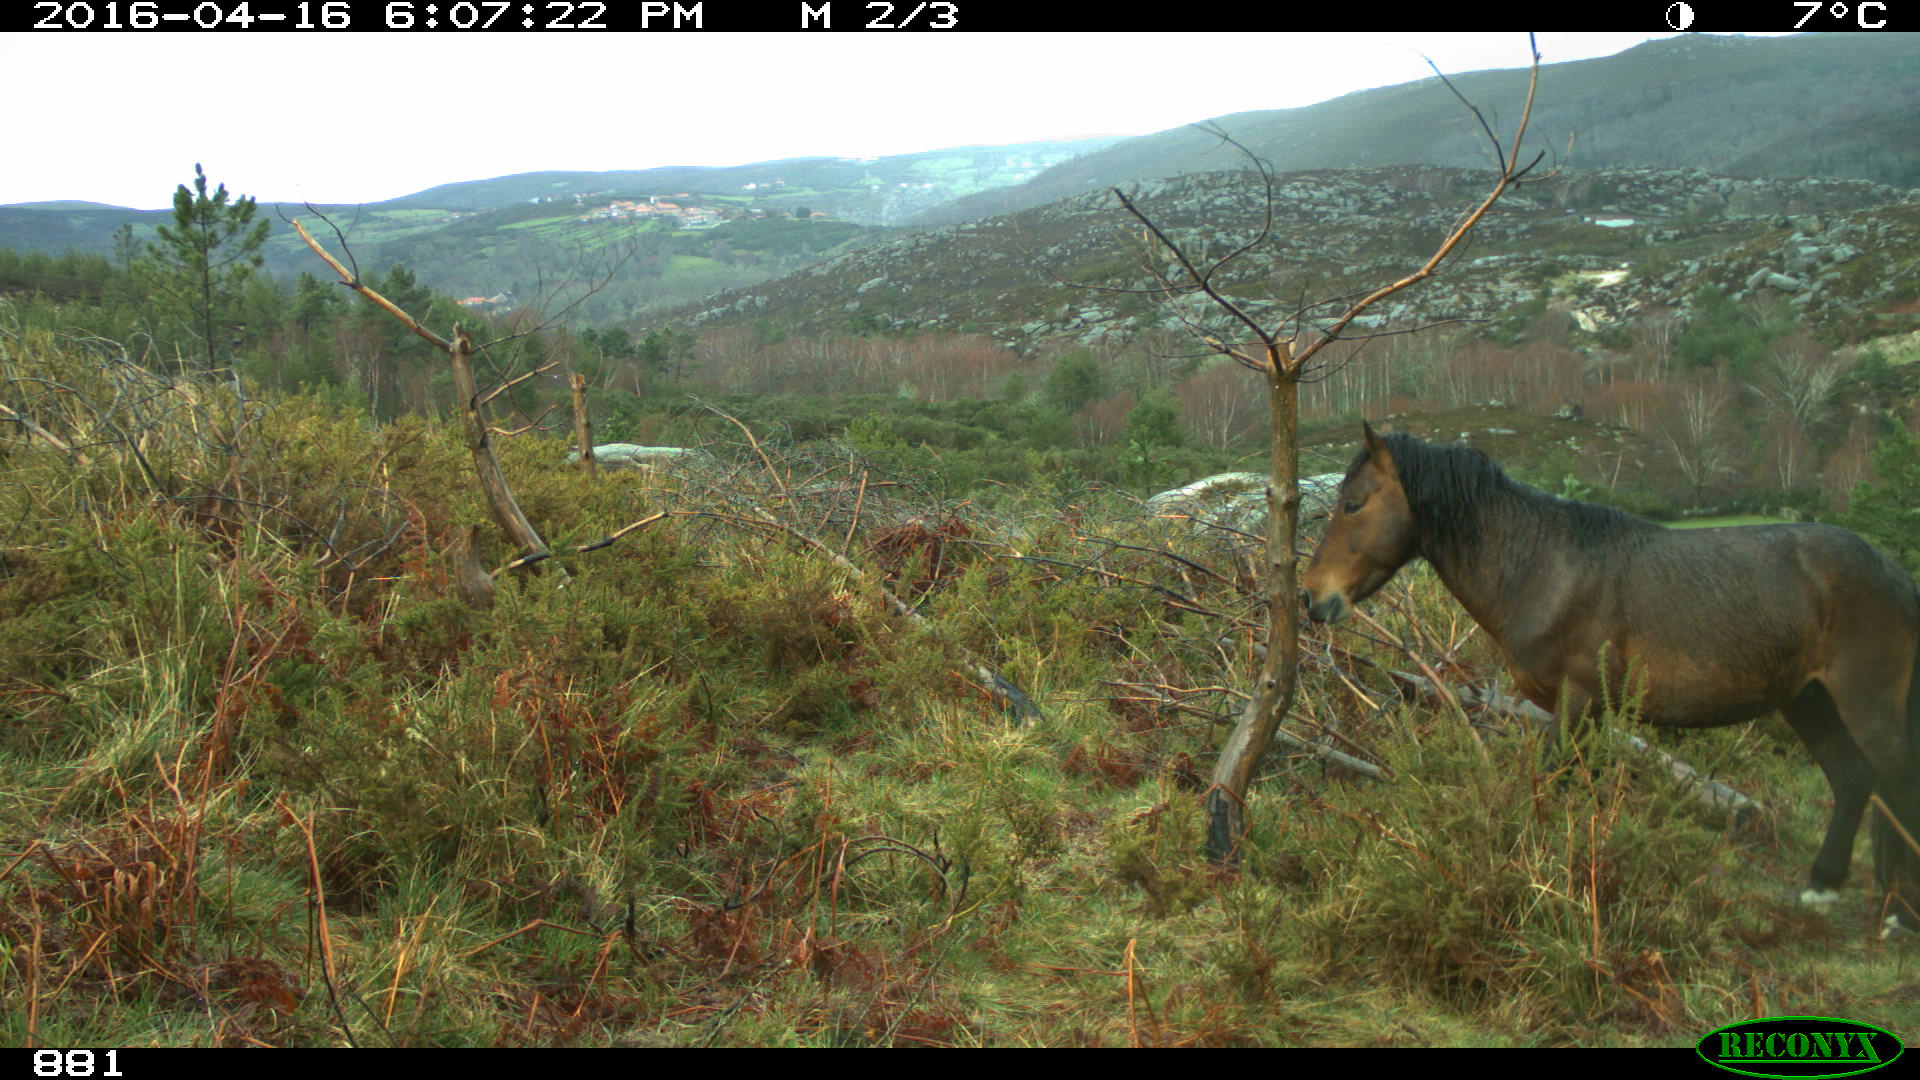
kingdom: Animalia
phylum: Chordata
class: Mammalia
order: Perissodactyla
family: Equidae
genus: Equus
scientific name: Equus caballus
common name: Horse
